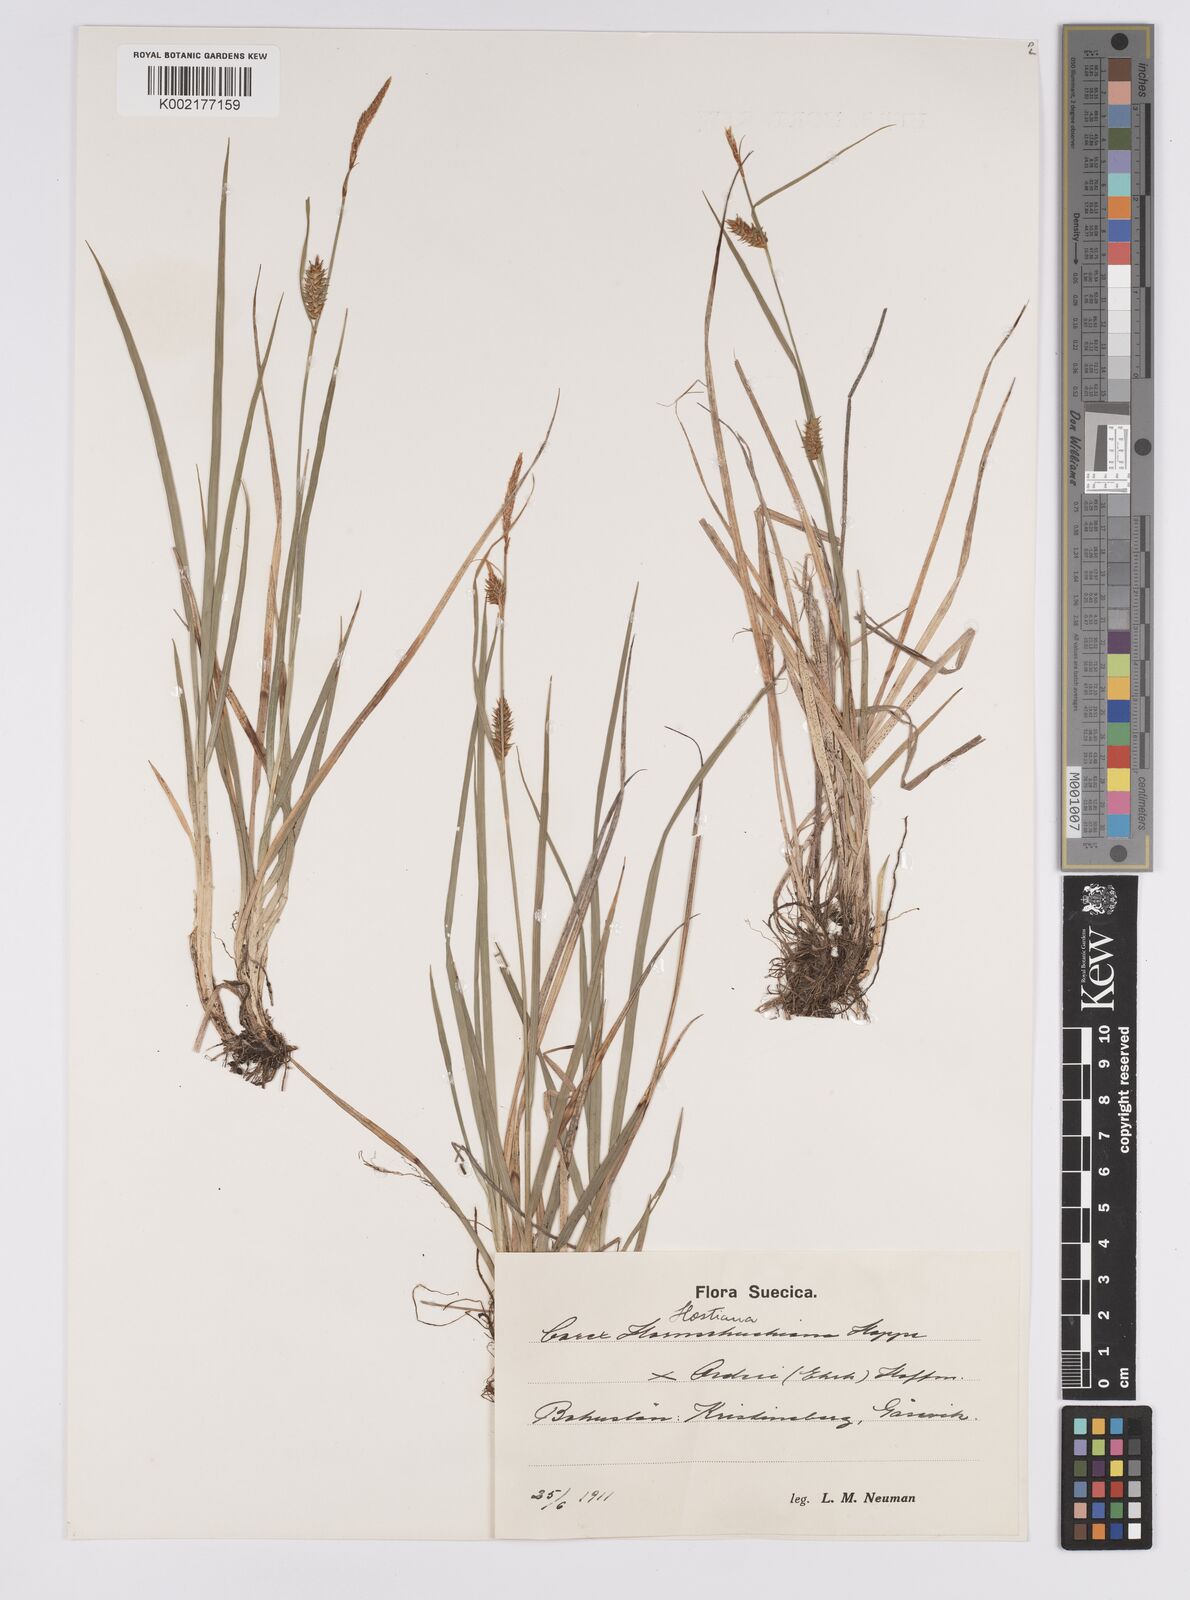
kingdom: Plantae
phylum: Tracheophyta
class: Liliopsida
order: Poales
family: Cyperaceae
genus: Carex
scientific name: Carex hostiana
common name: Tawny sedge
